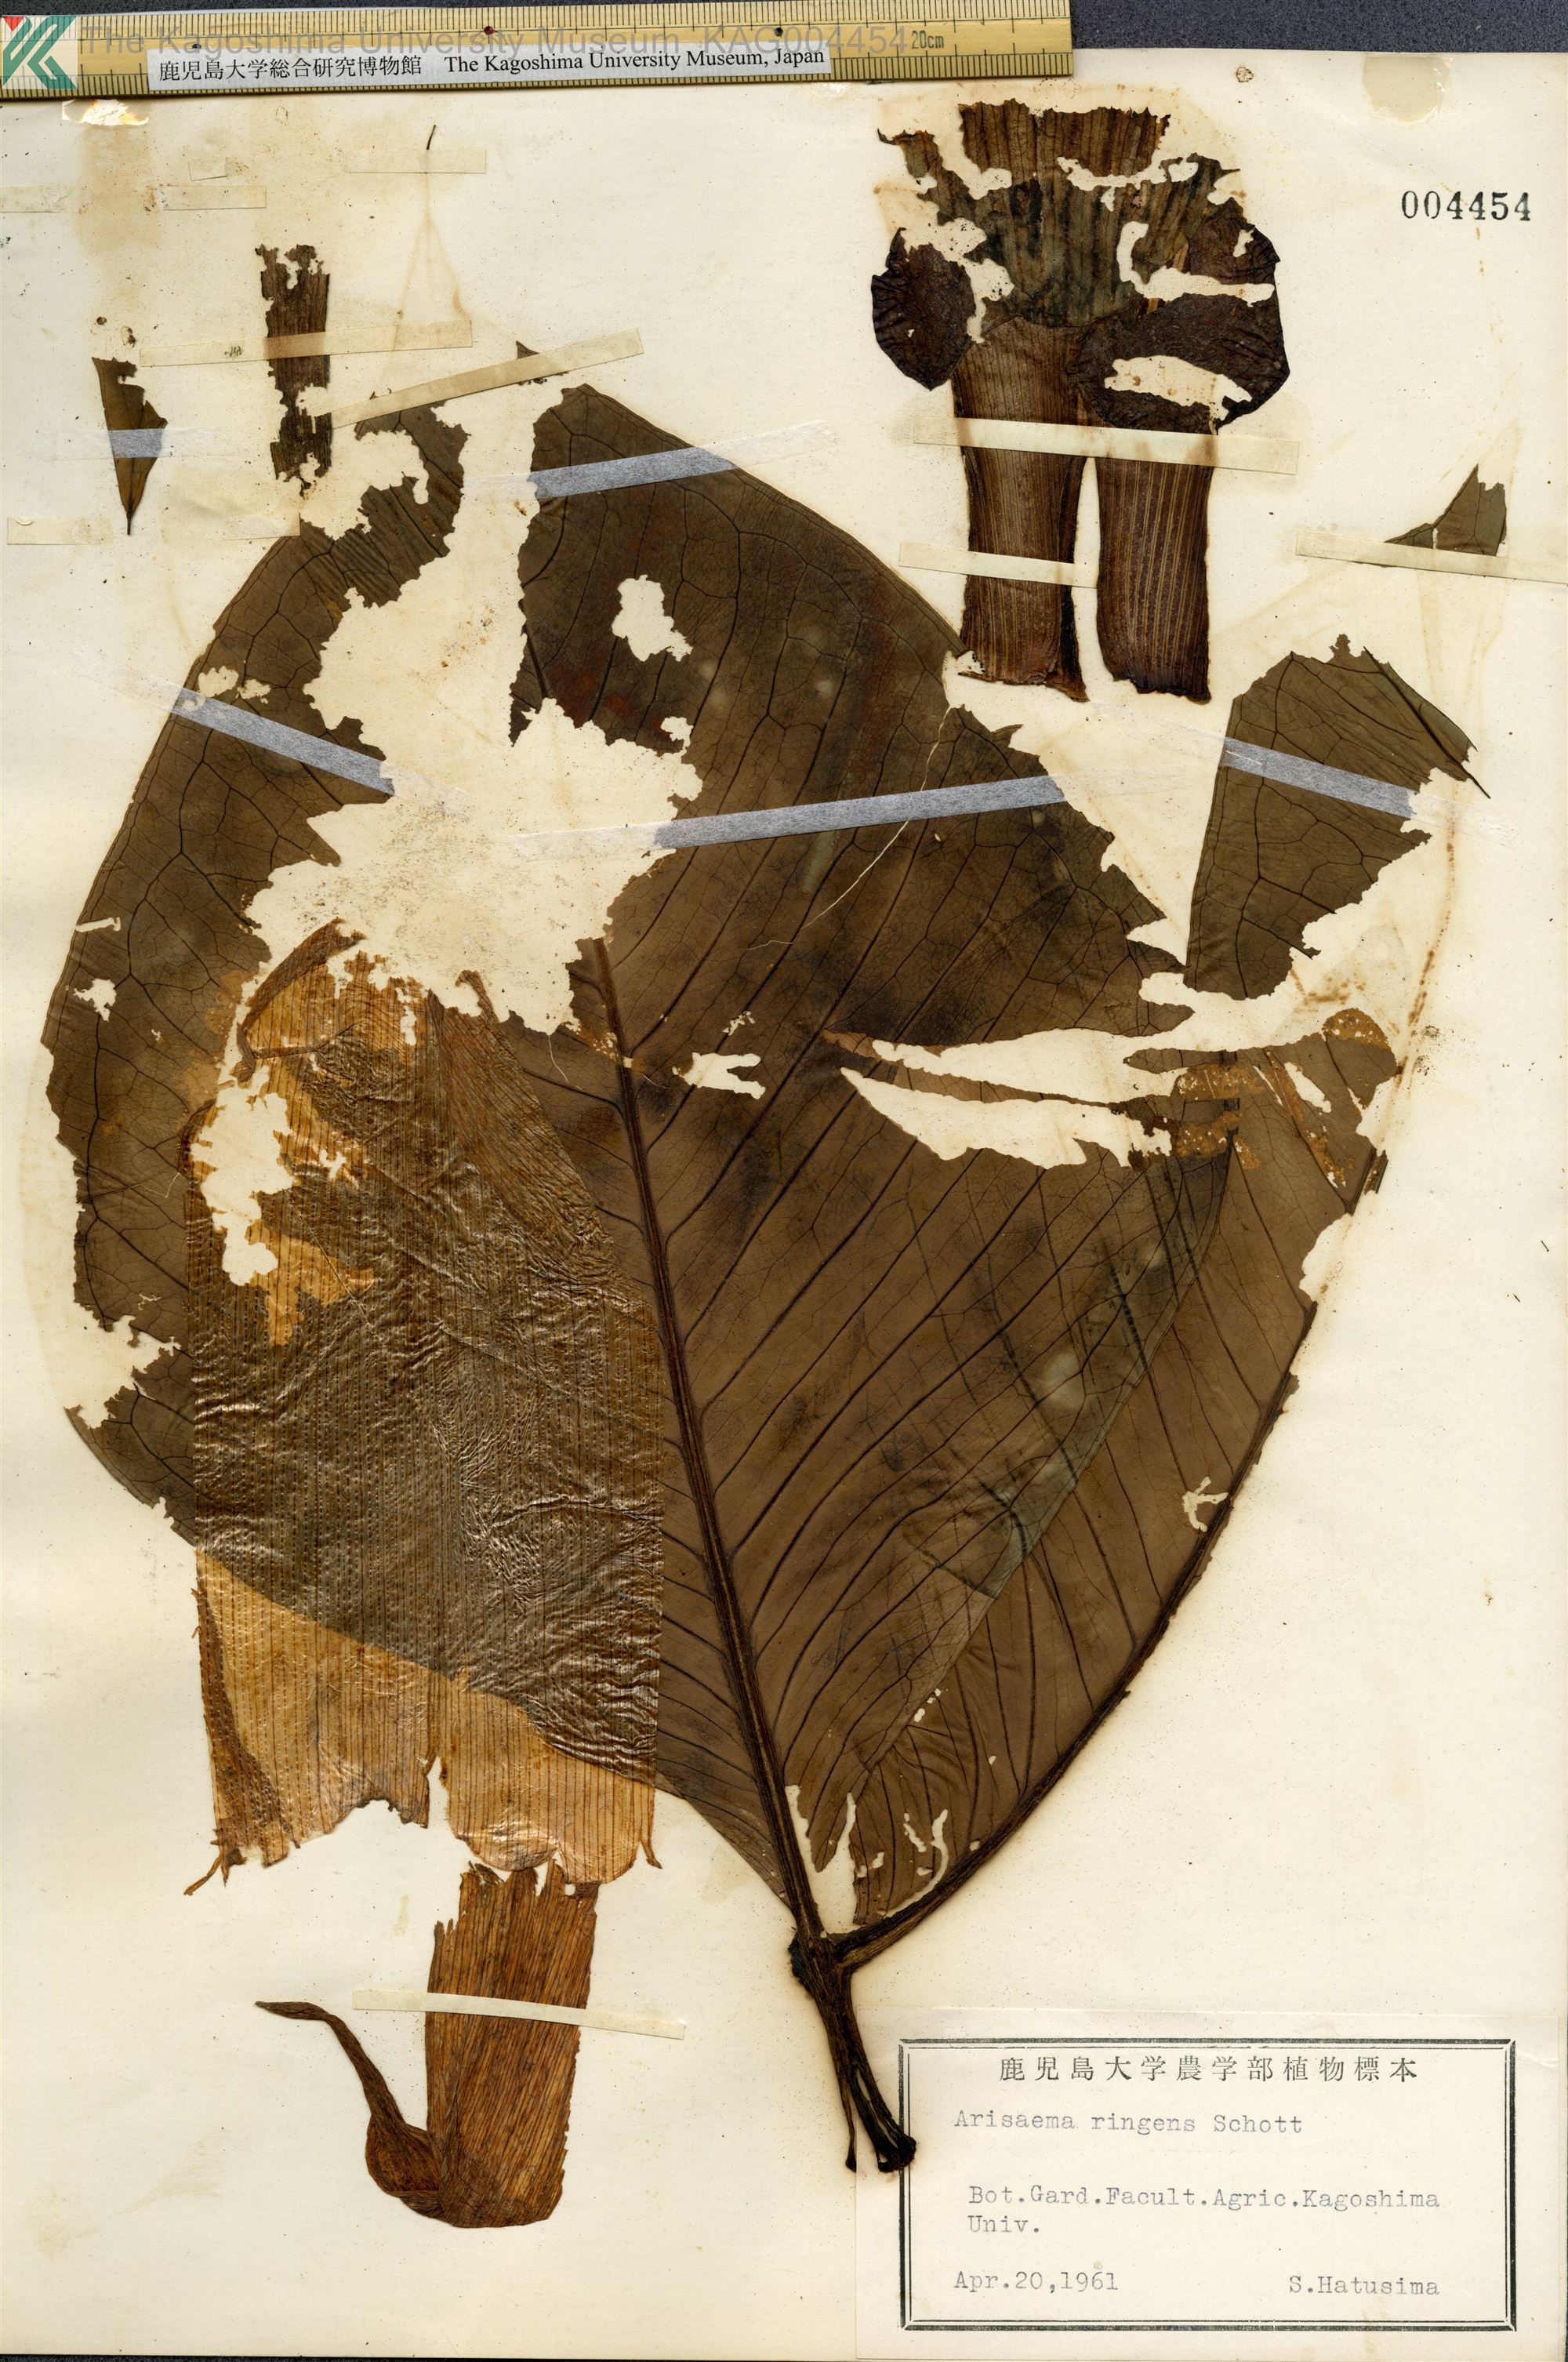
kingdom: Plantae
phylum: Tracheophyta
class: Liliopsida
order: Alismatales
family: Araceae
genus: Arisaema
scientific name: Arisaema ringens
